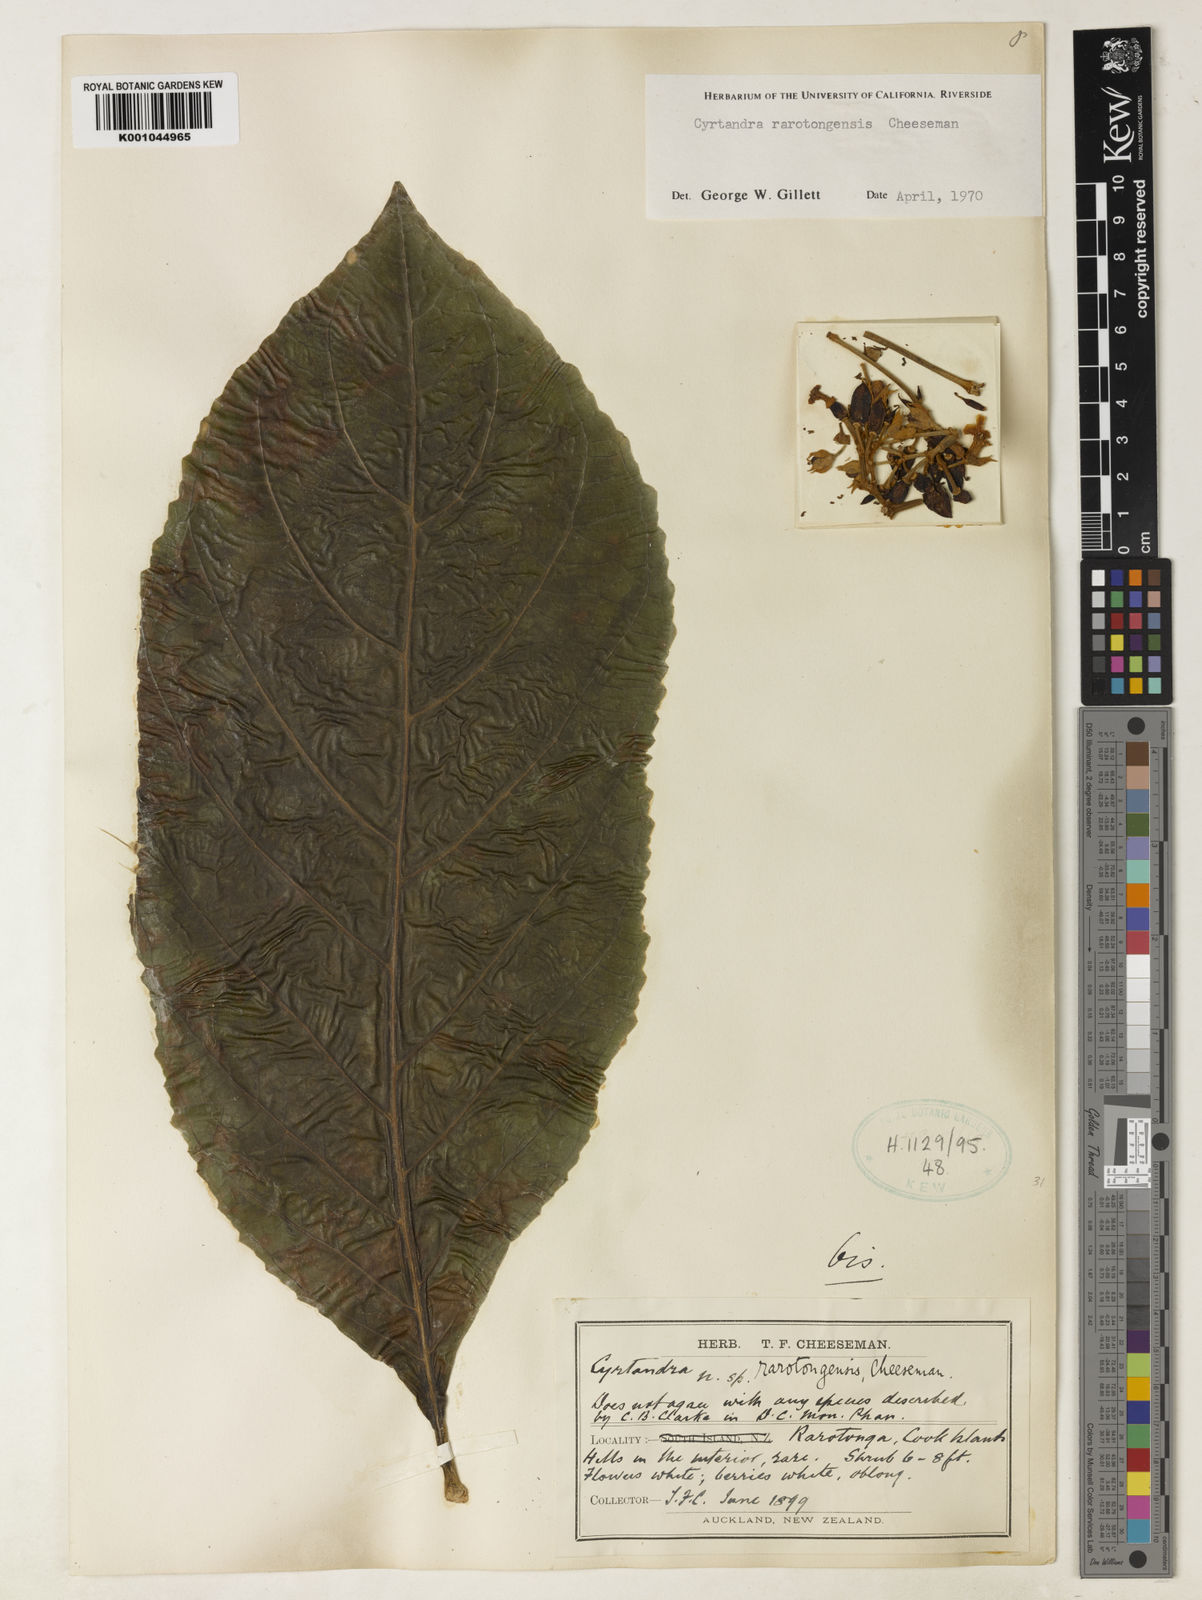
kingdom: Plantae
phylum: Tracheophyta
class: Magnoliopsida
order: Lamiales
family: Gesneriaceae
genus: Cyrtandra
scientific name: Cyrtandra rarotongensis
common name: Rarotonga cyrtandra
